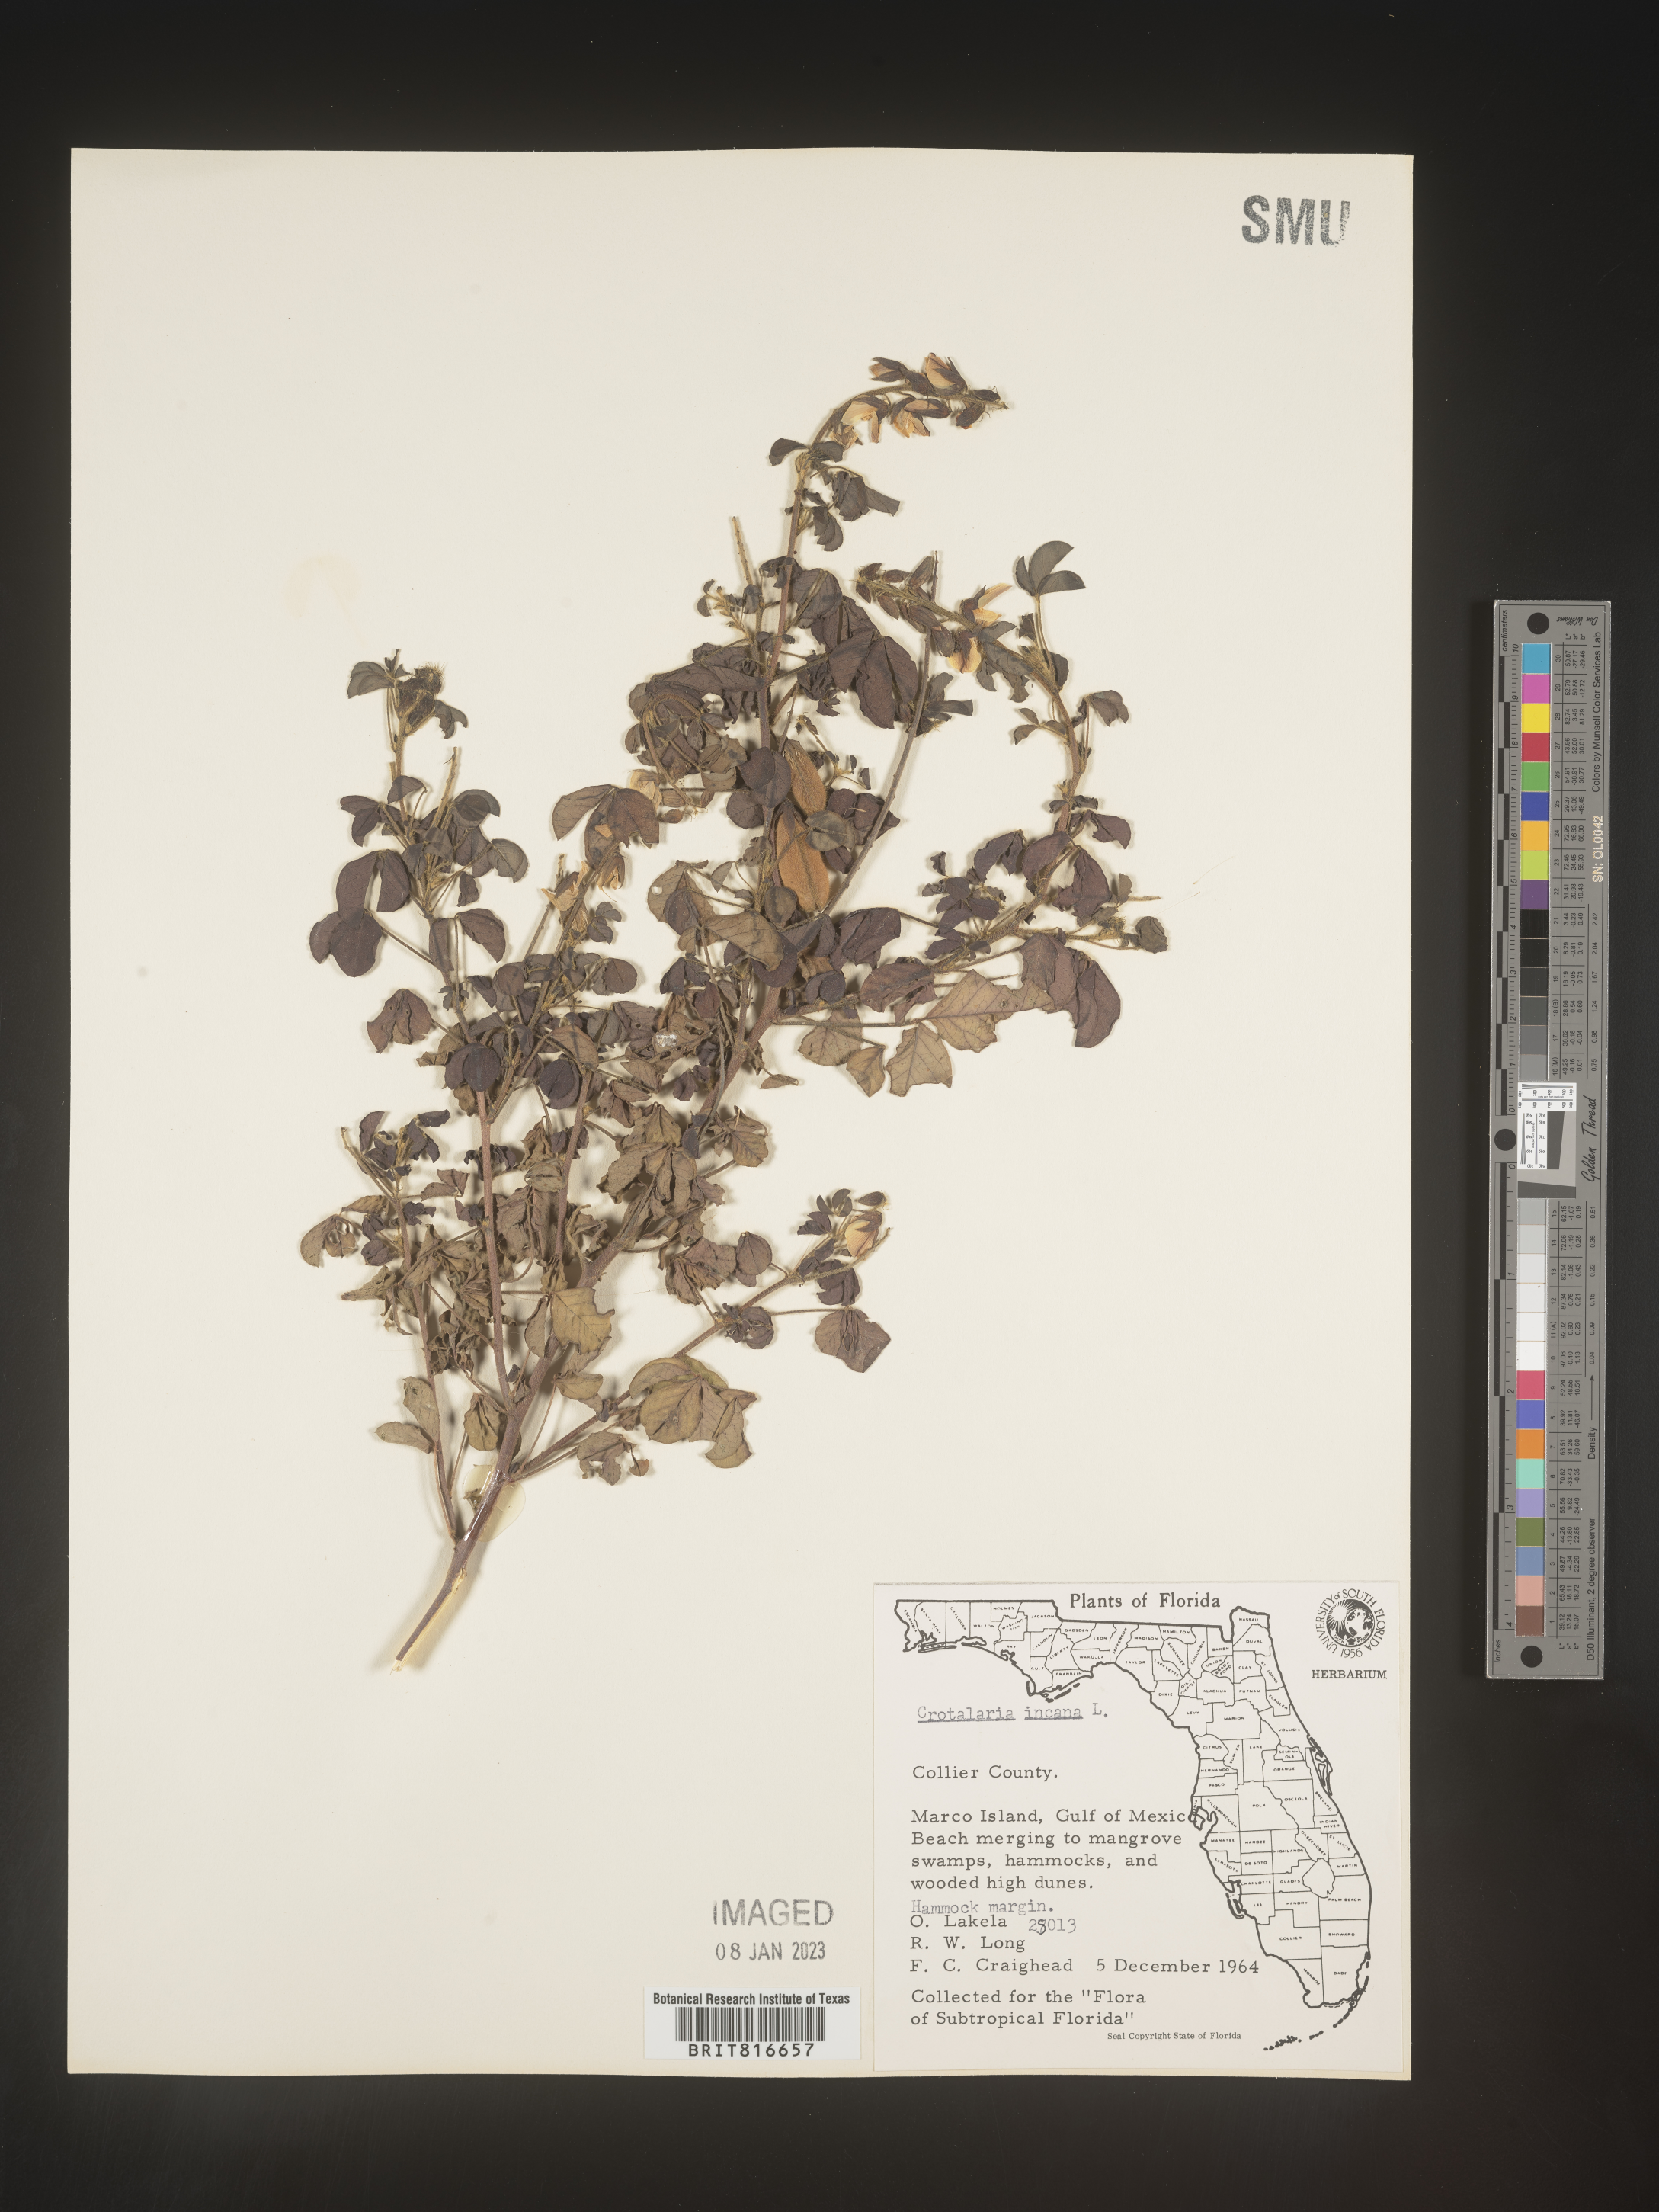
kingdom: Plantae
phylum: Tracheophyta
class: Magnoliopsida
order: Fabales
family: Fabaceae
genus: Crotalaria
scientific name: Crotalaria
